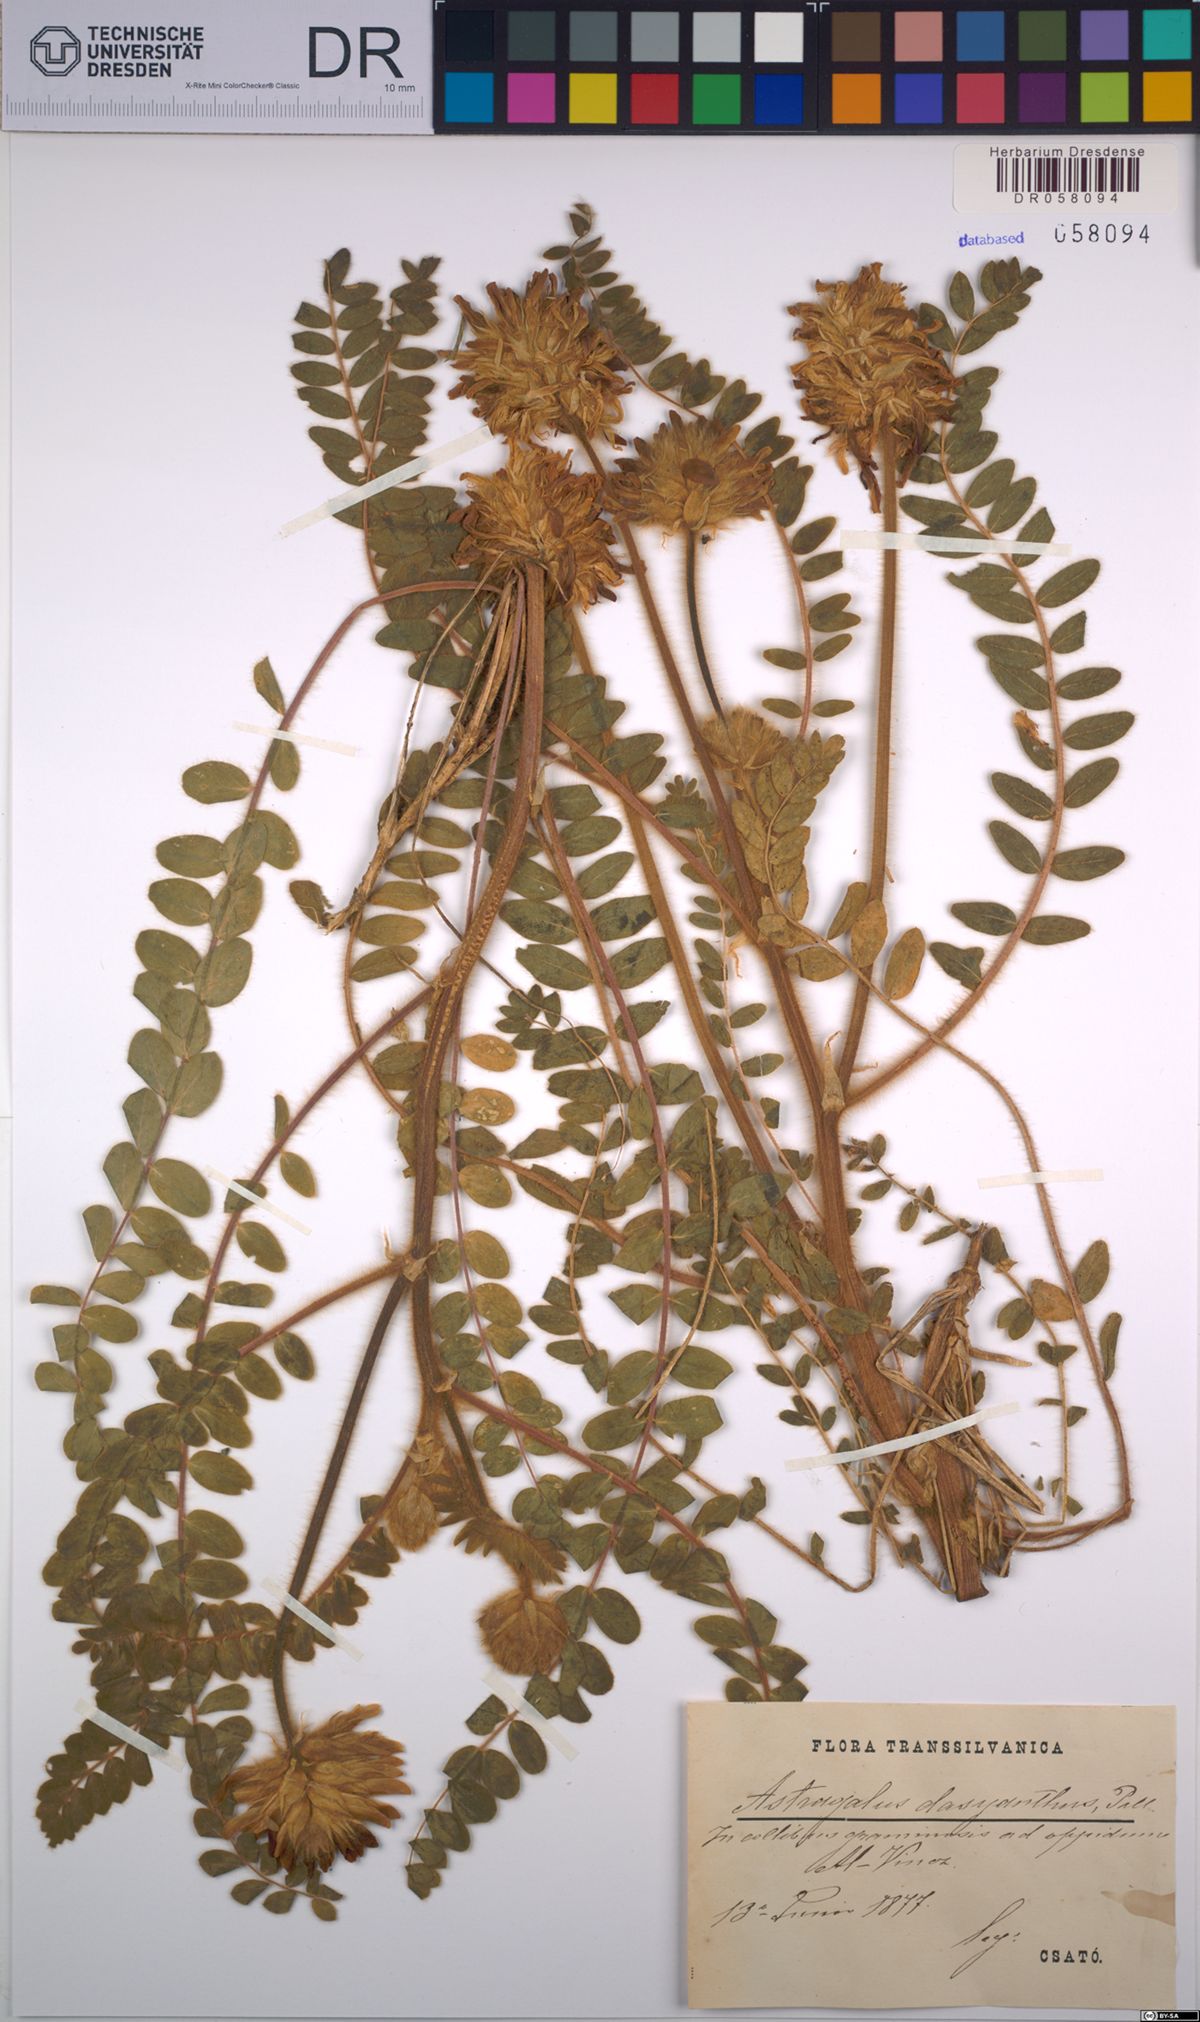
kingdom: Plantae
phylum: Tracheophyta
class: Magnoliopsida
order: Fabales
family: Fabaceae
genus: Astragalus
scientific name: Astragalus dasyanthus
